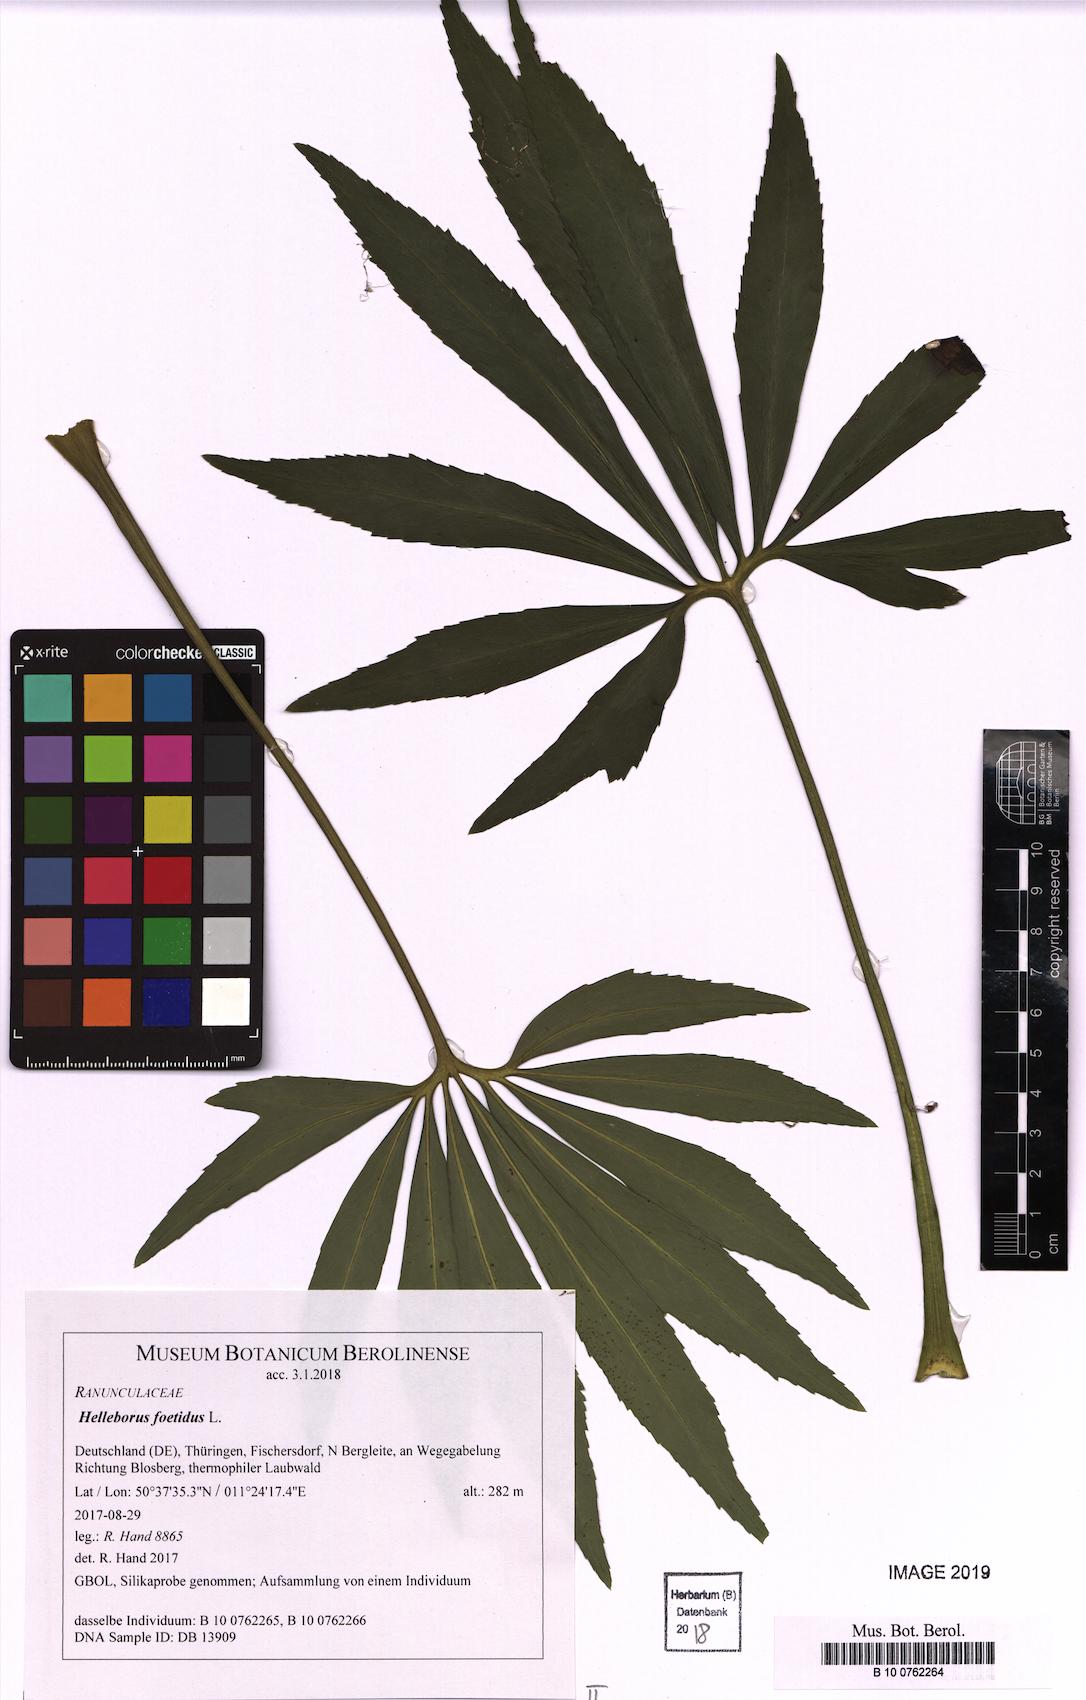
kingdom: Plantae
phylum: Tracheophyta
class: Magnoliopsida
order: Ranunculales
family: Ranunculaceae
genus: Helleborus
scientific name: Helleborus foetidus
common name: Stinking hellebore
